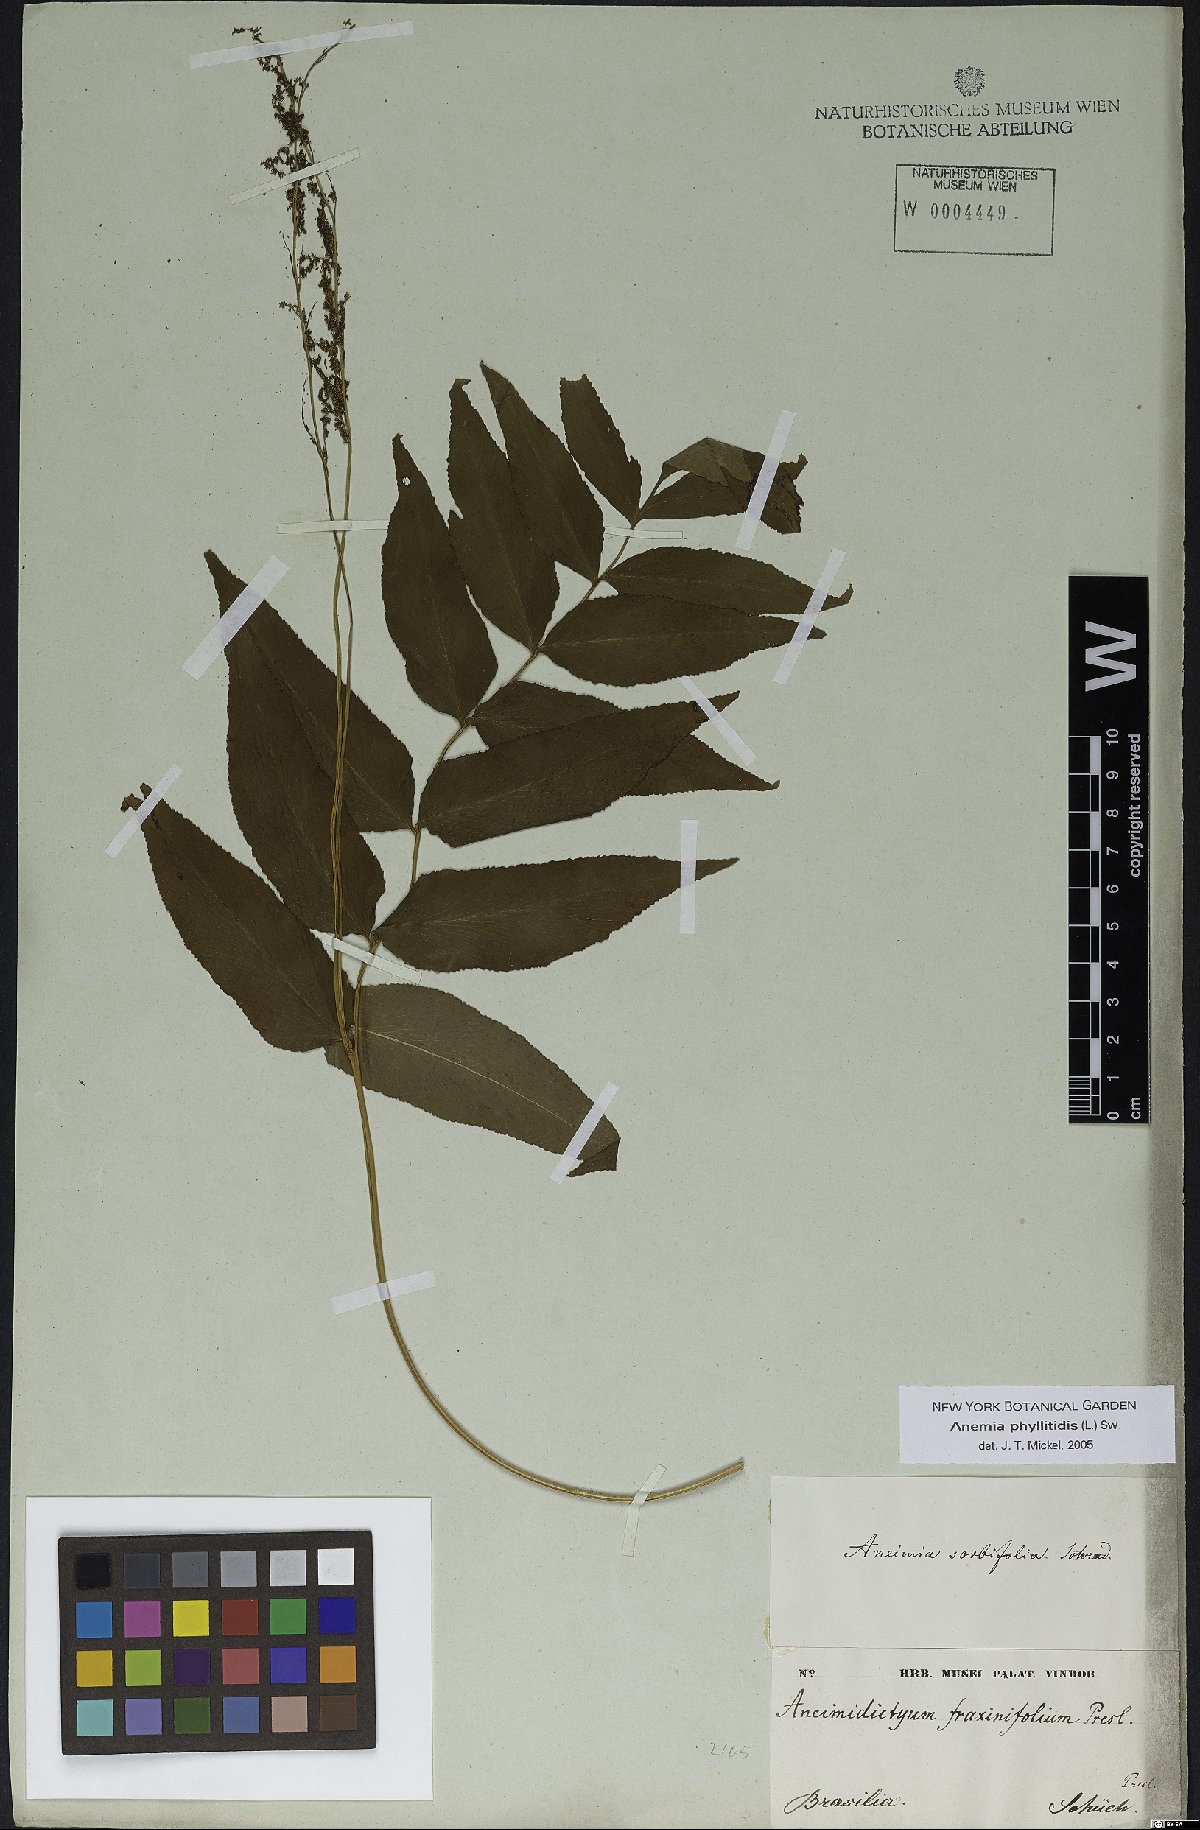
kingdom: Plantae
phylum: Tracheophyta
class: Polypodiopsida
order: Schizaeales
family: Anemiaceae
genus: Anemia
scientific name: Anemia phyllitidis
